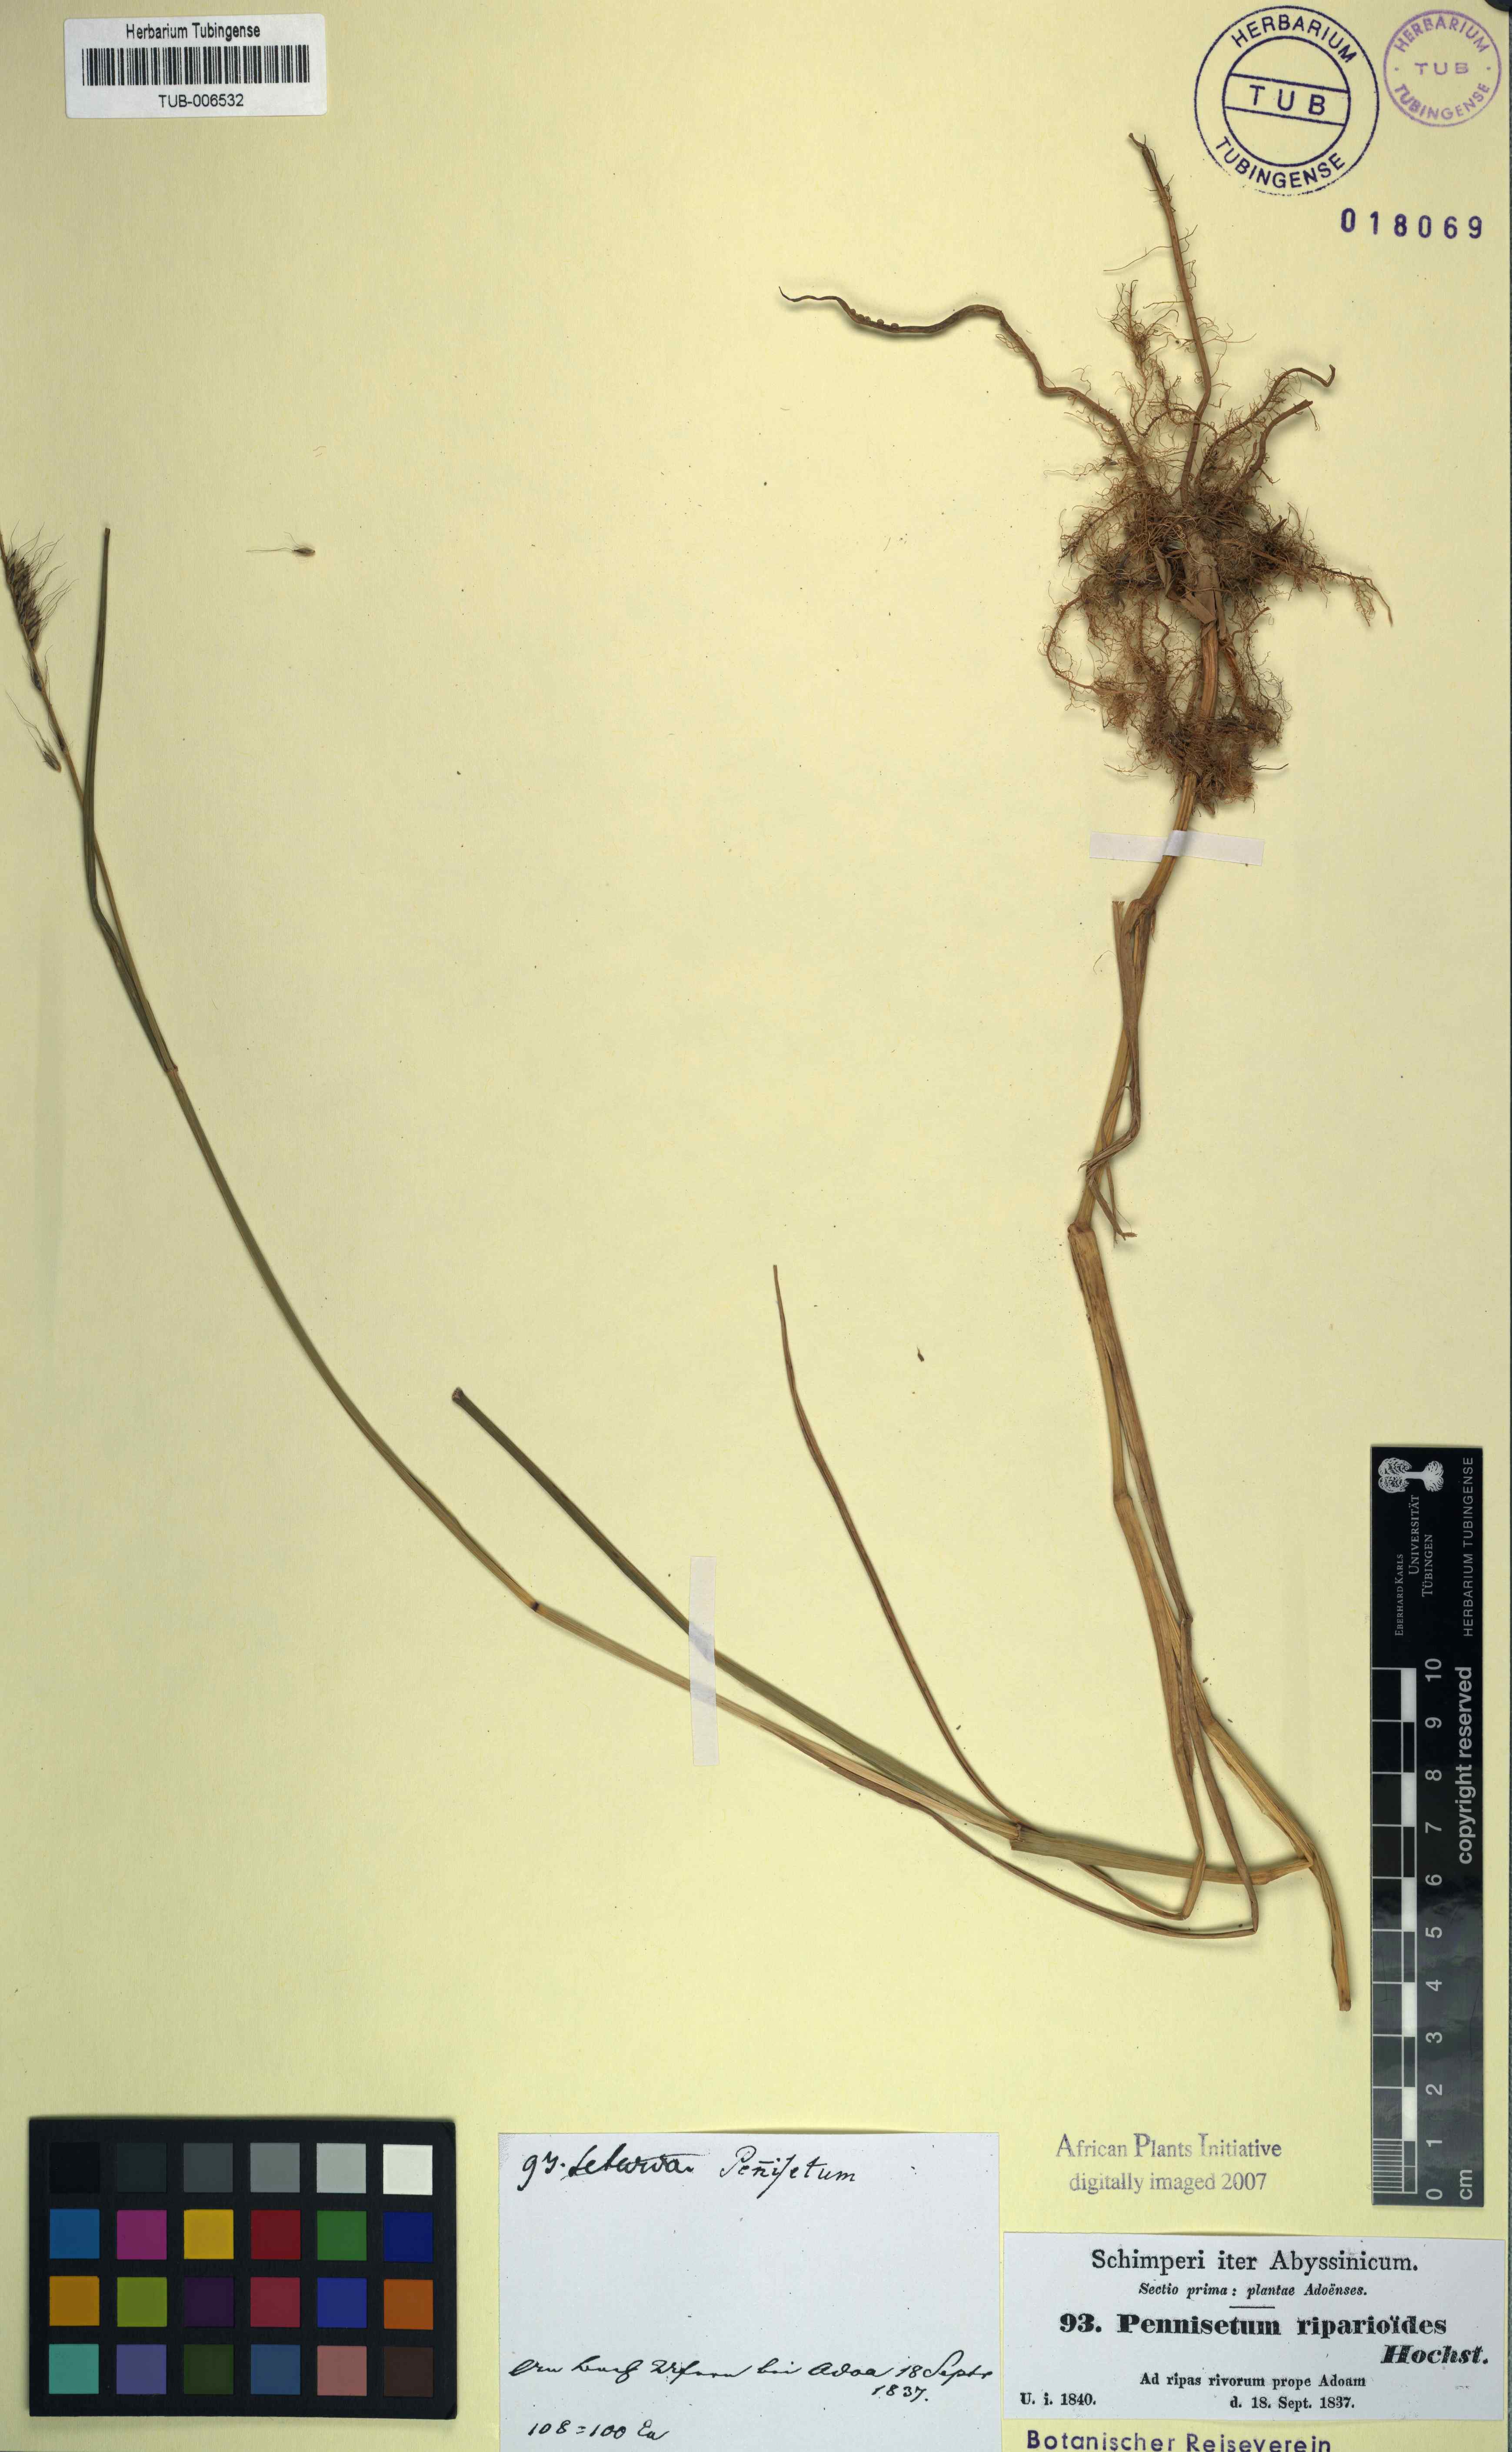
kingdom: Plantae
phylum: Tracheophyta
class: Liliopsida
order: Poales
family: Poaceae
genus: Cenchrus
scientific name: Cenchrus caudatus
